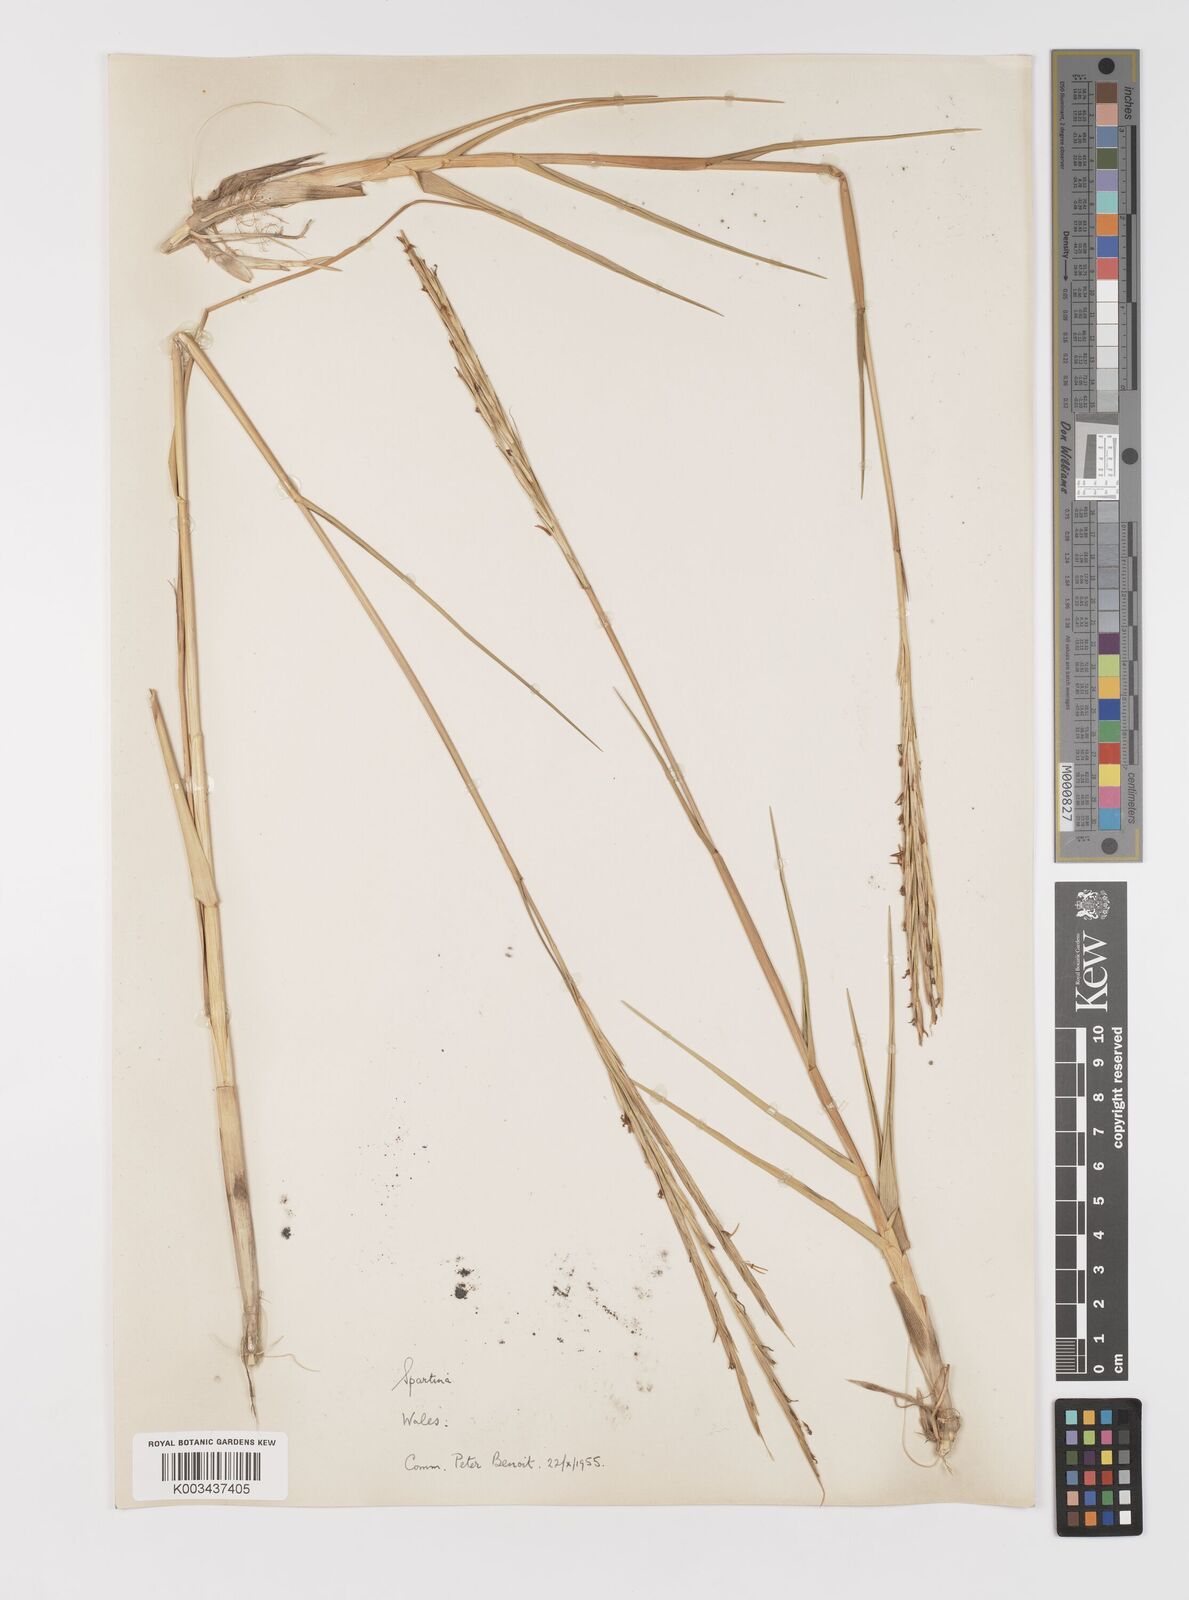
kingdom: Plantae
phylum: Tracheophyta
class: Liliopsida
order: Poales
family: Poaceae
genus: Sporobolus
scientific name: Sporobolus townsendii
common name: Townsend's cordgrass
